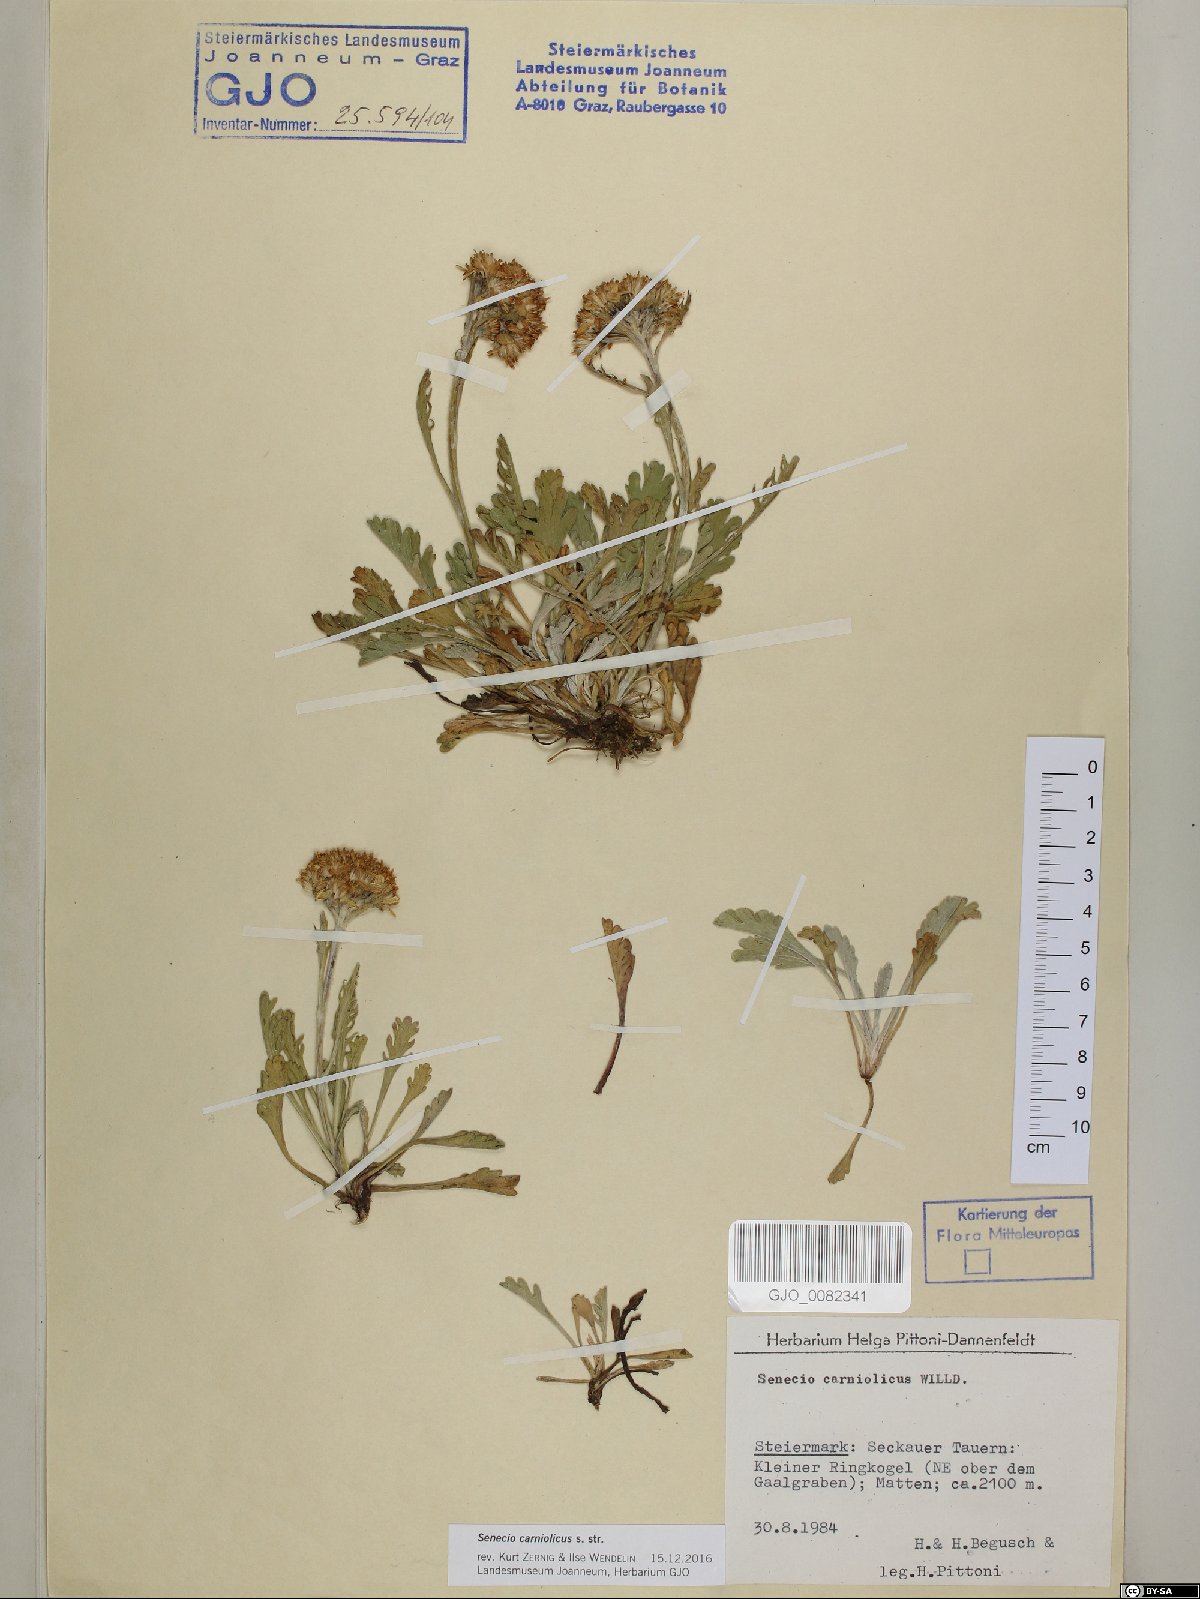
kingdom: Plantae
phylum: Tracheophyta
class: Magnoliopsida
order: Asterales
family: Asteraceae
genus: Jacobaea
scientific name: Jacobaea disjuncta
